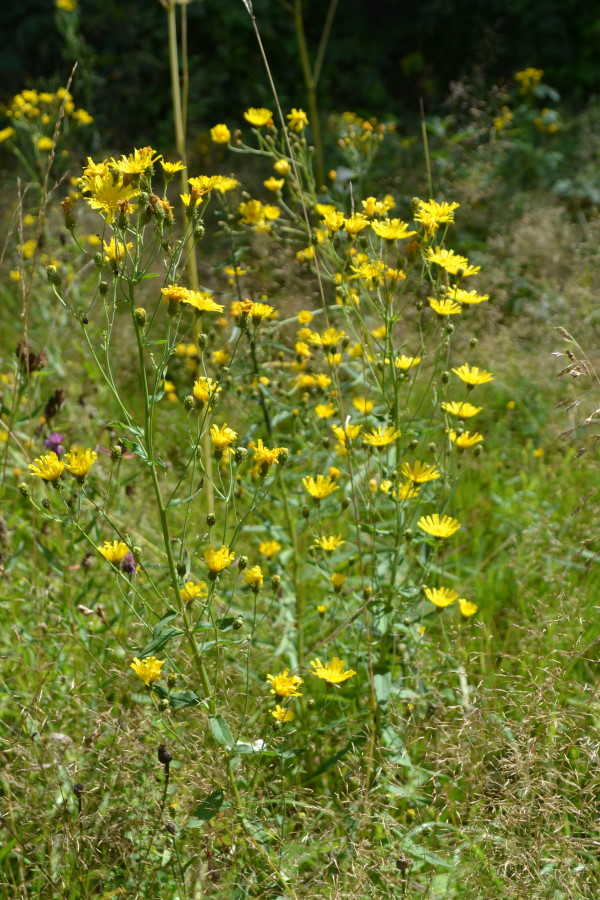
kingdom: Plantae
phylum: Tracheophyta
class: Magnoliopsida
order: Asterales
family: Asteraceae
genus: Hieracium
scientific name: Hieracium umbellatum
